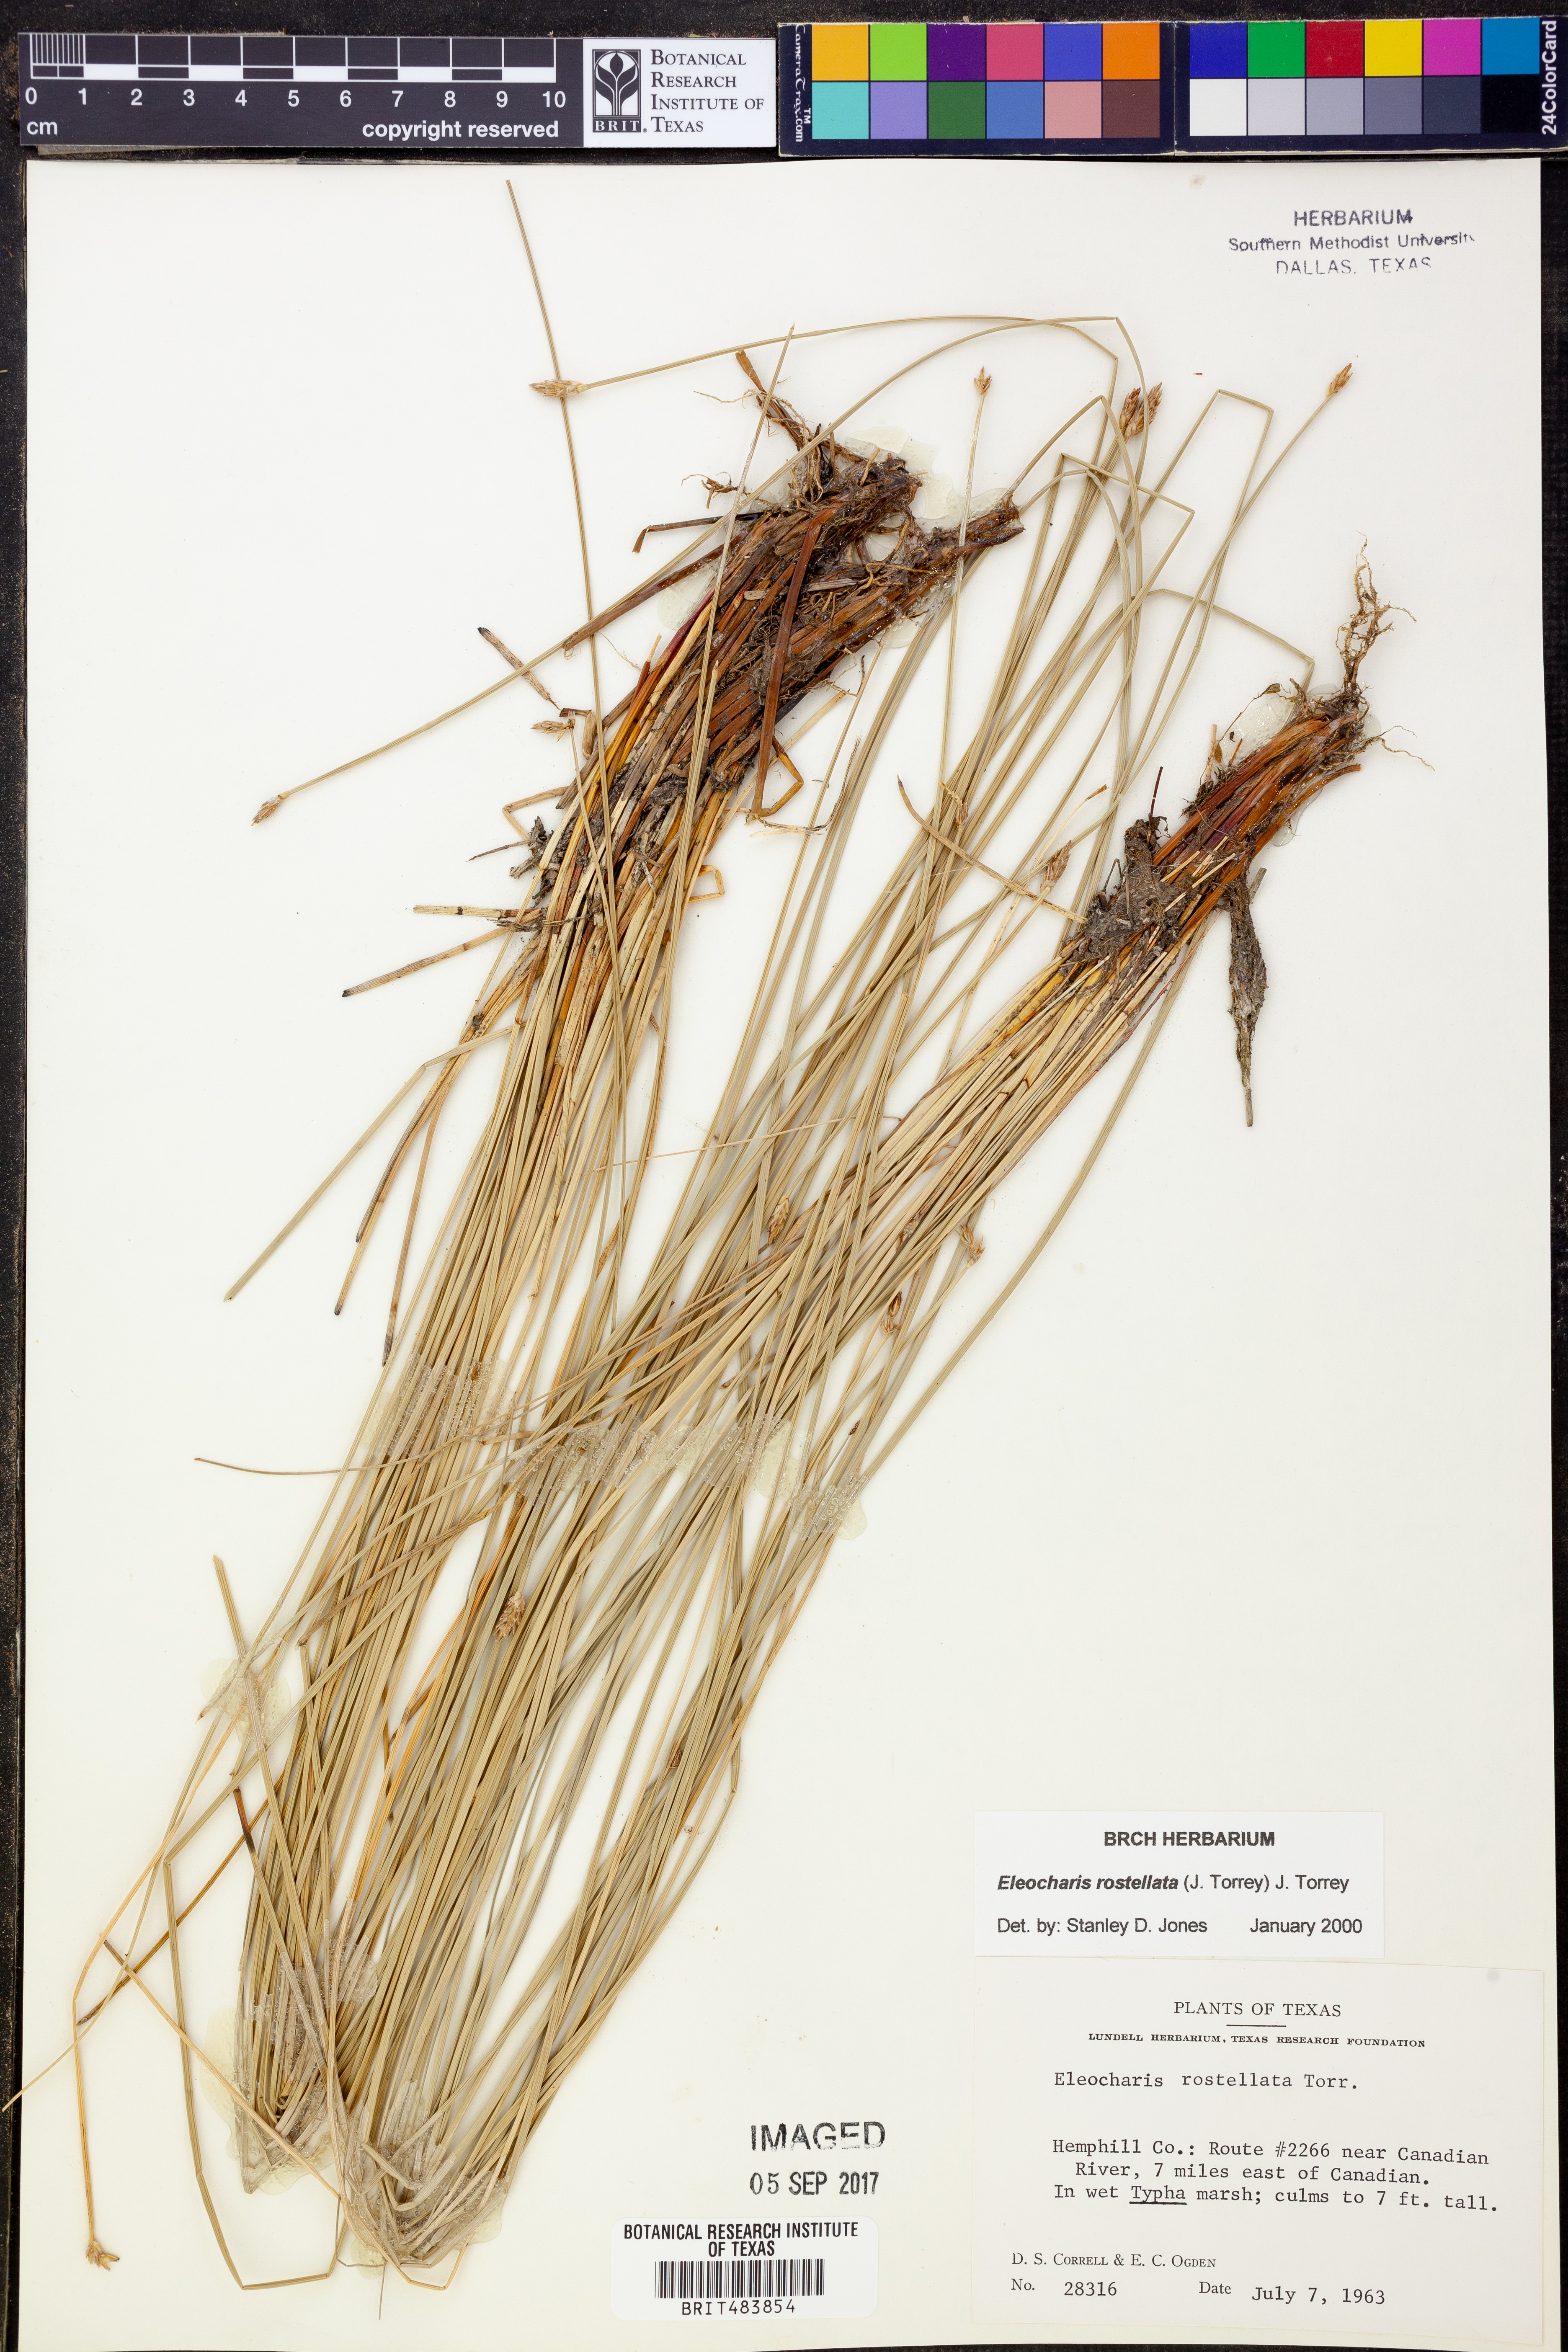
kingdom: Plantae
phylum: Tracheophyta
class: Liliopsida
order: Poales
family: Cyperaceae
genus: Eleocharis
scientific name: Eleocharis rostellata
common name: Walking sedge
